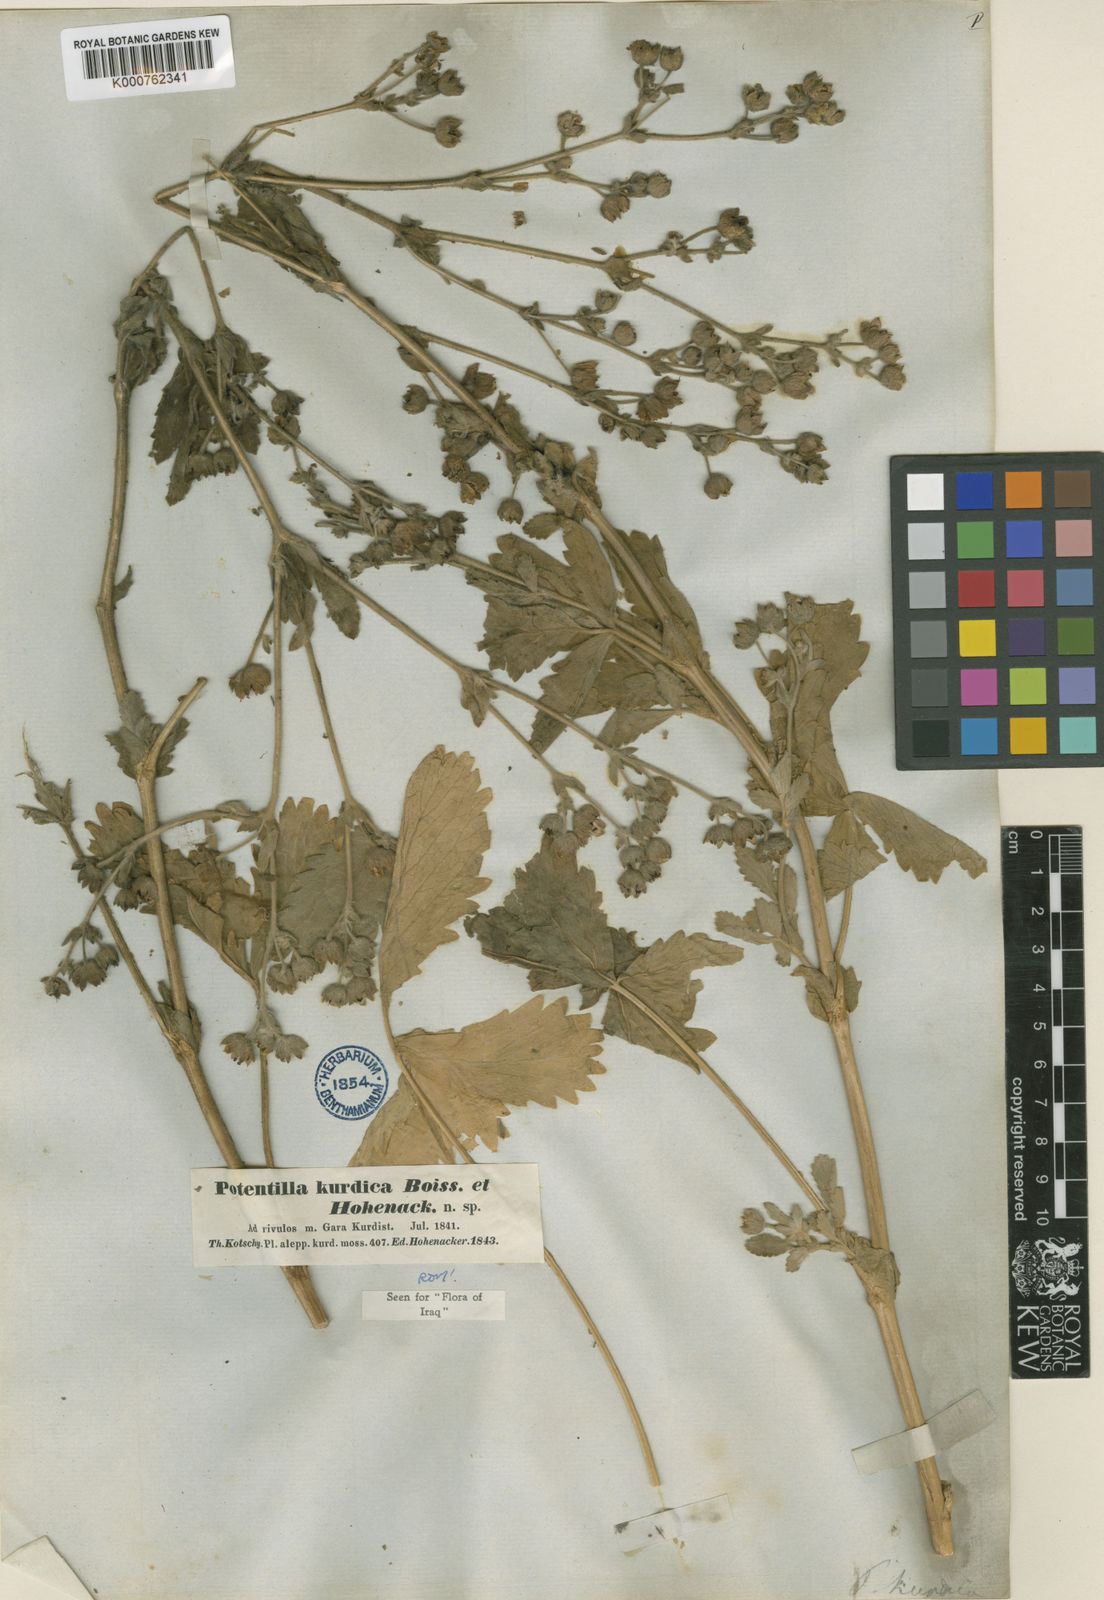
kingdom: Plantae
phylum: Tracheophyta
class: Magnoliopsida
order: Rosales
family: Rosaceae
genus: Potentilla
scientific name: Potentilla kurdica
